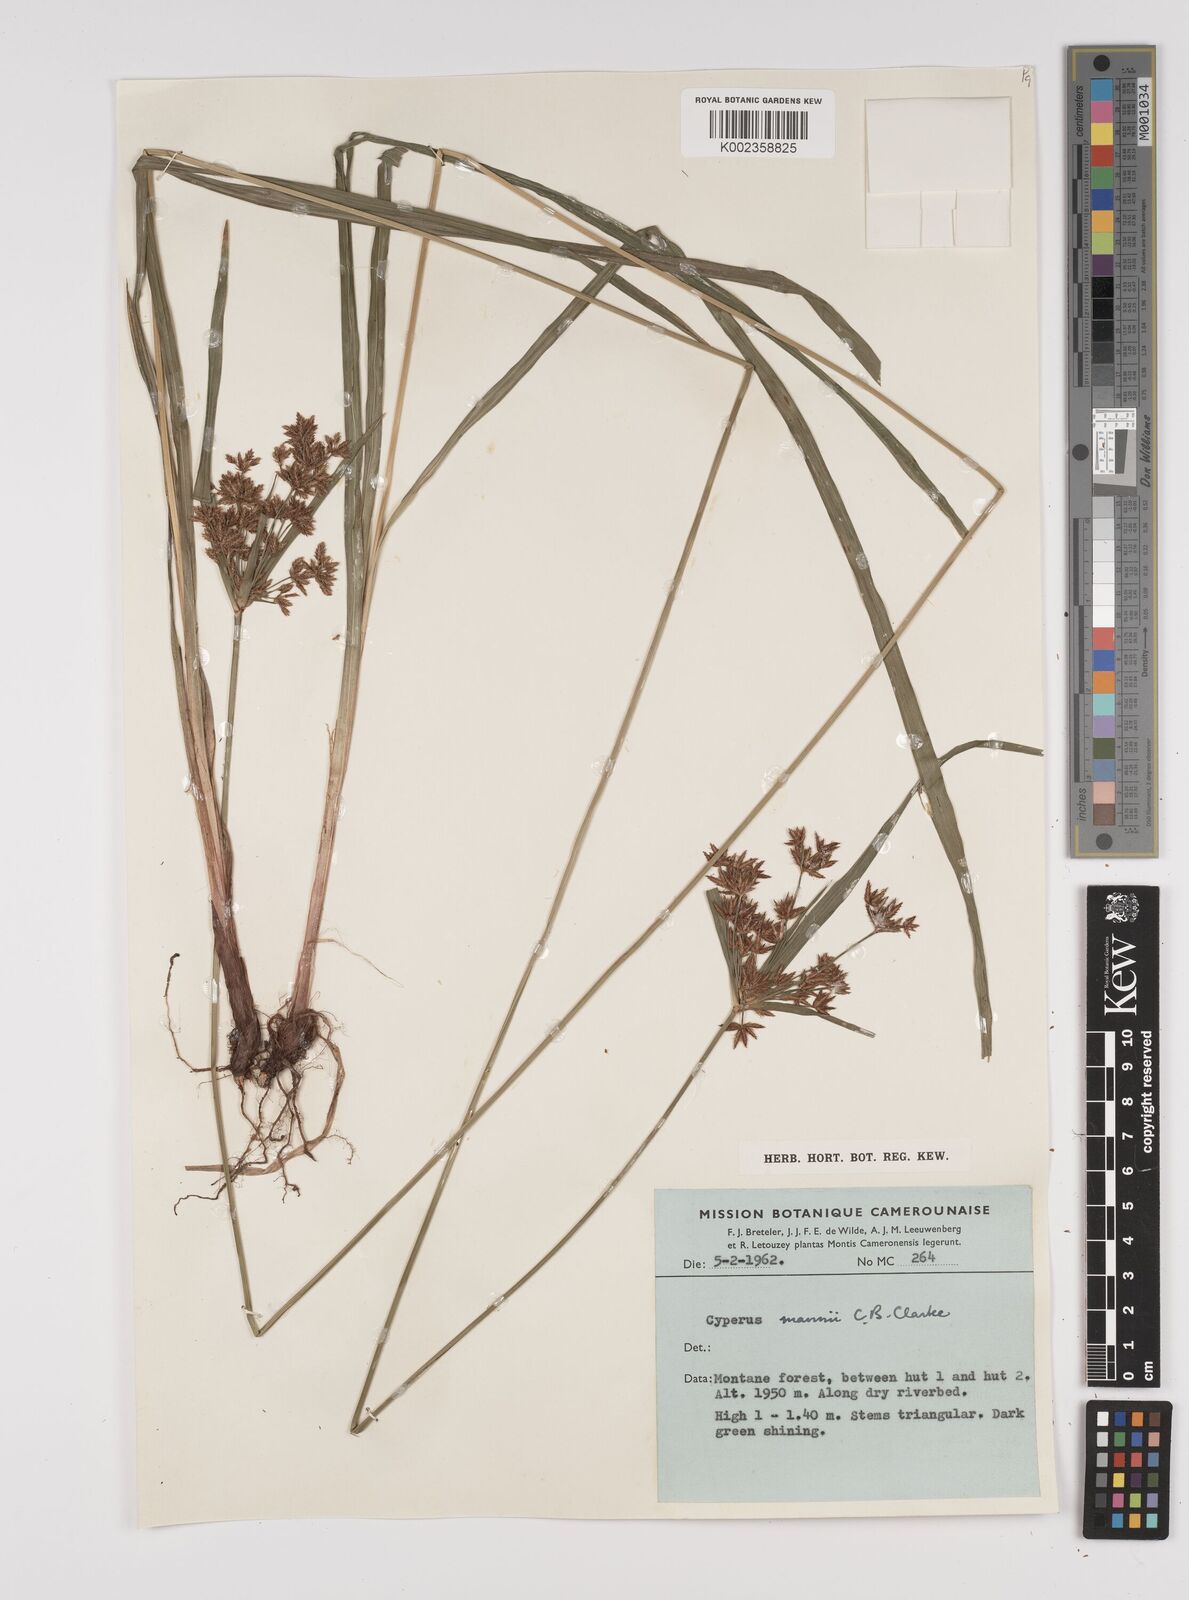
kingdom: Plantae
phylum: Tracheophyta
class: Liliopsida
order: Poales
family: Cyperaceae
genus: Cyperus
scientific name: Cyperus baronii
